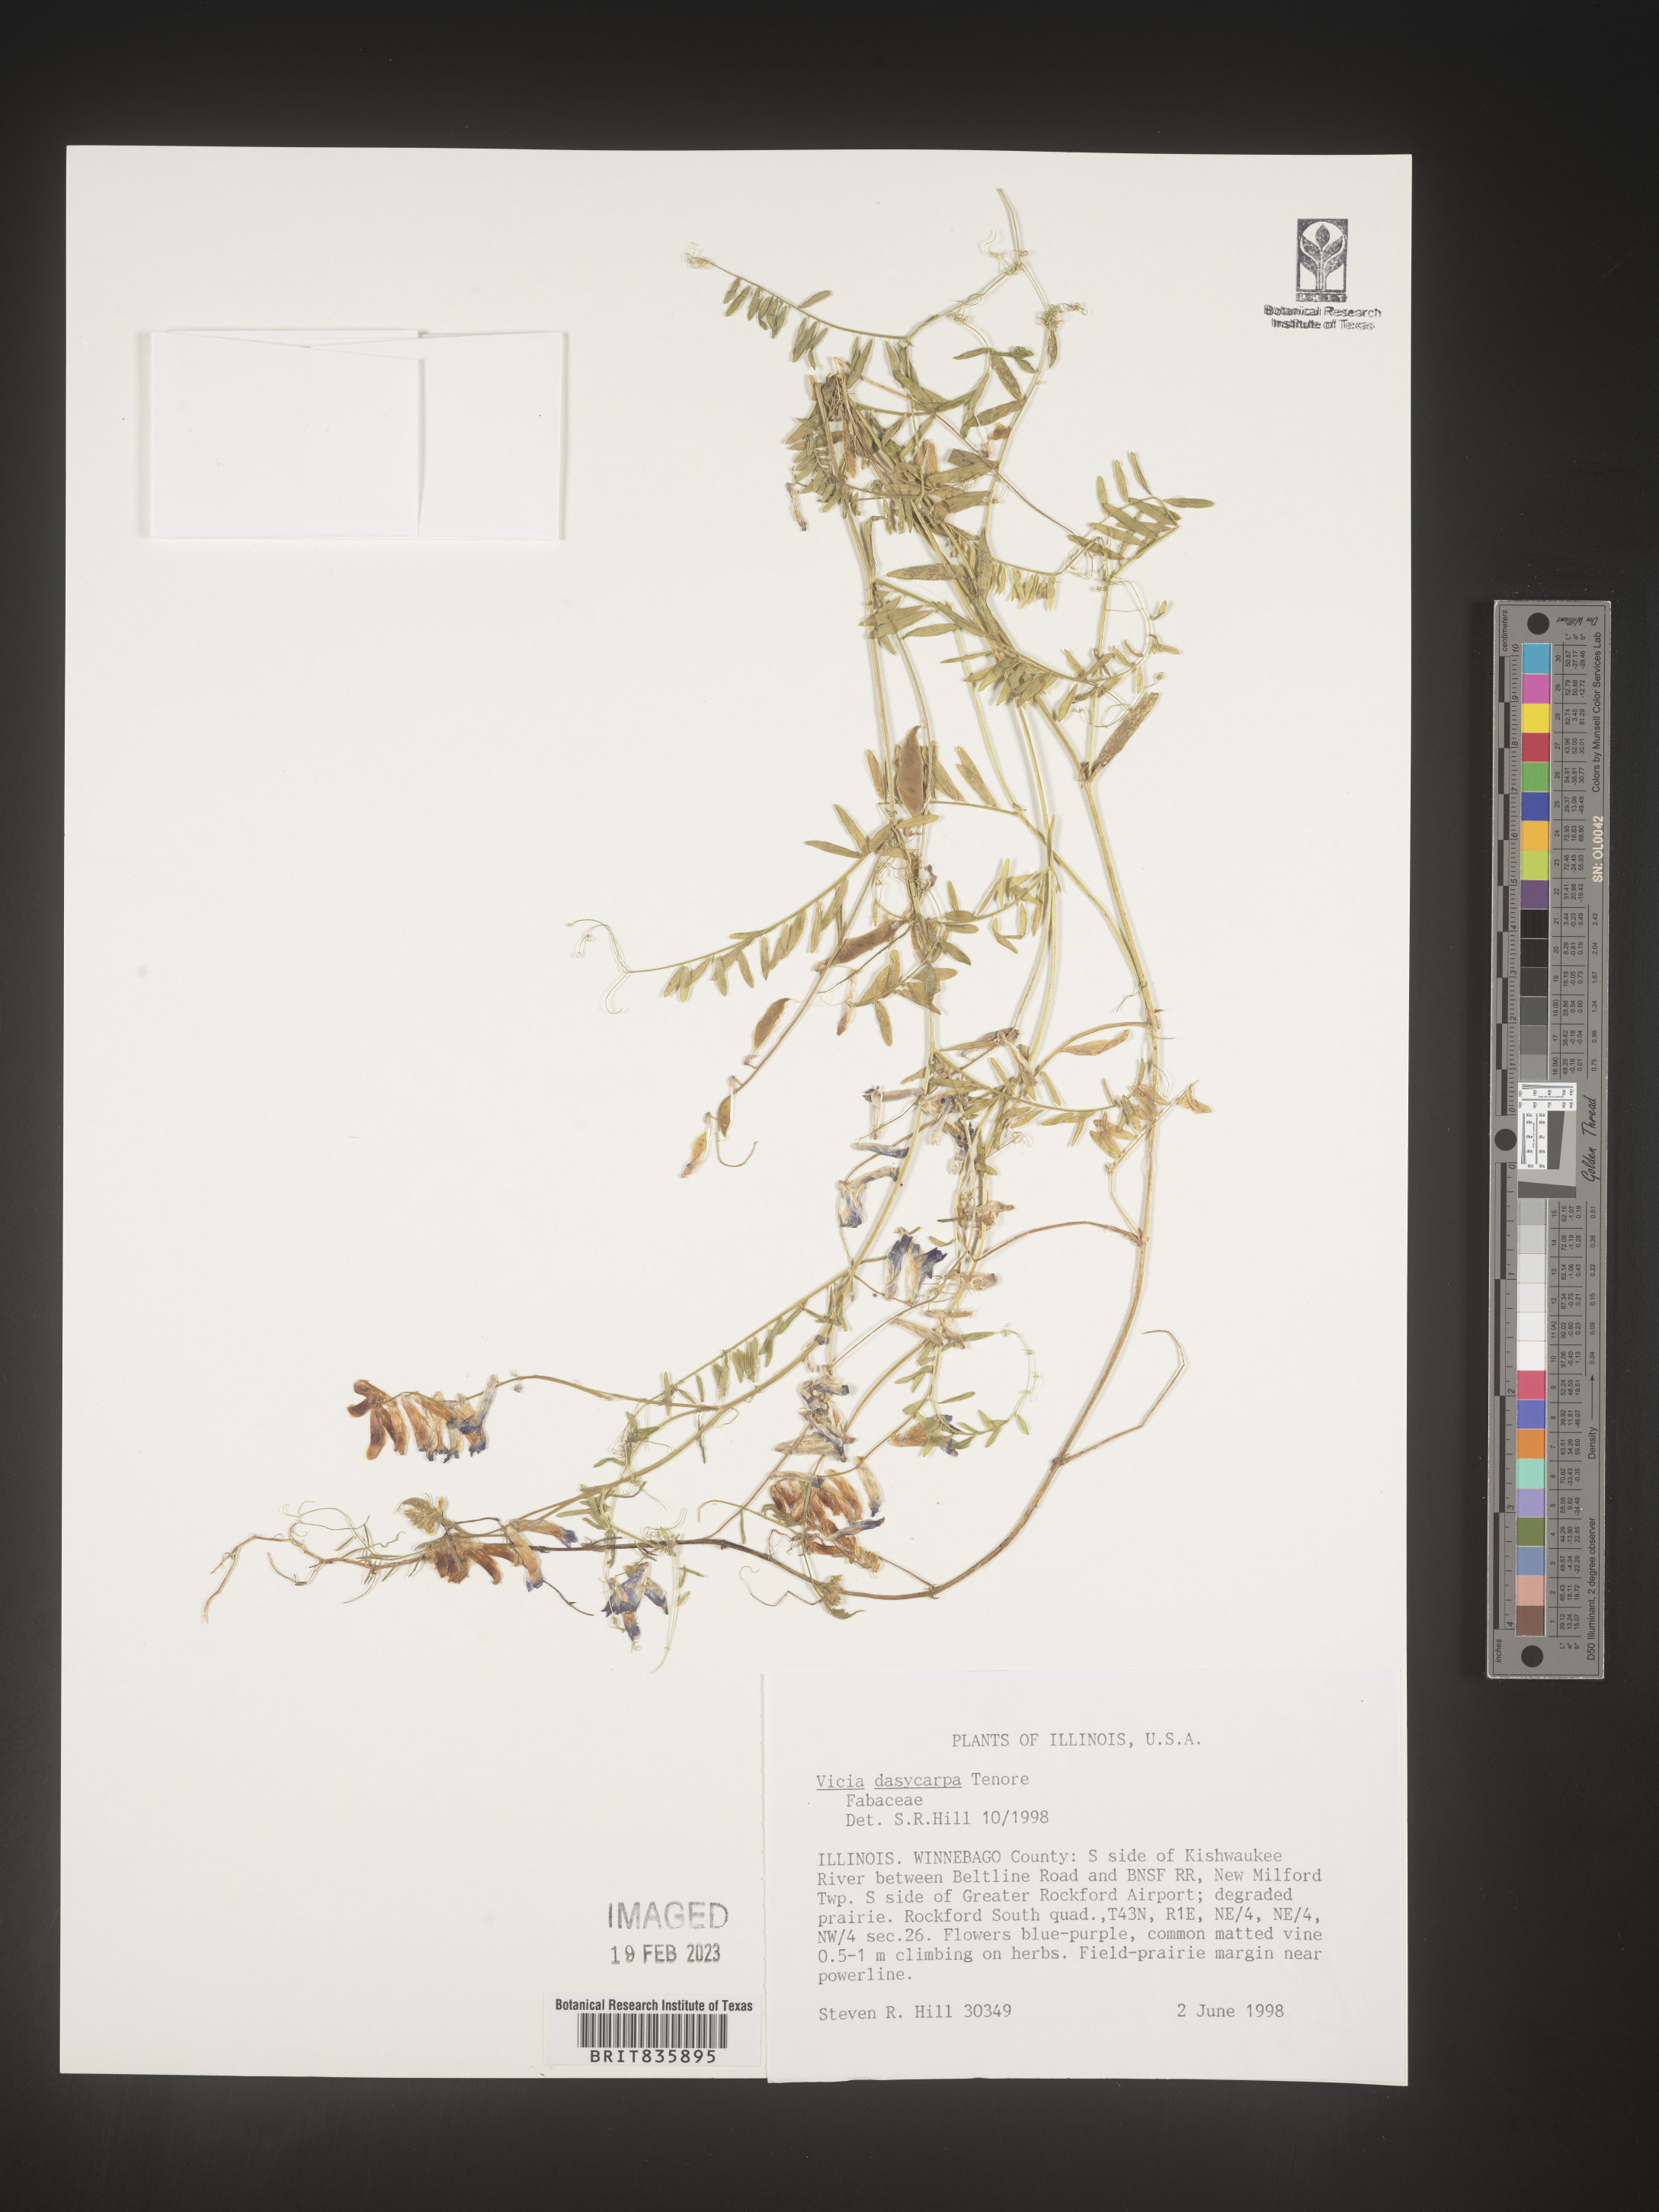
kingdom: Plantae
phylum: Tracheophyta
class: Magnoliopsida
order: Fabales
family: Fabaceae
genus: Vicia
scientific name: Vicia villosa
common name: Fodder vetch
